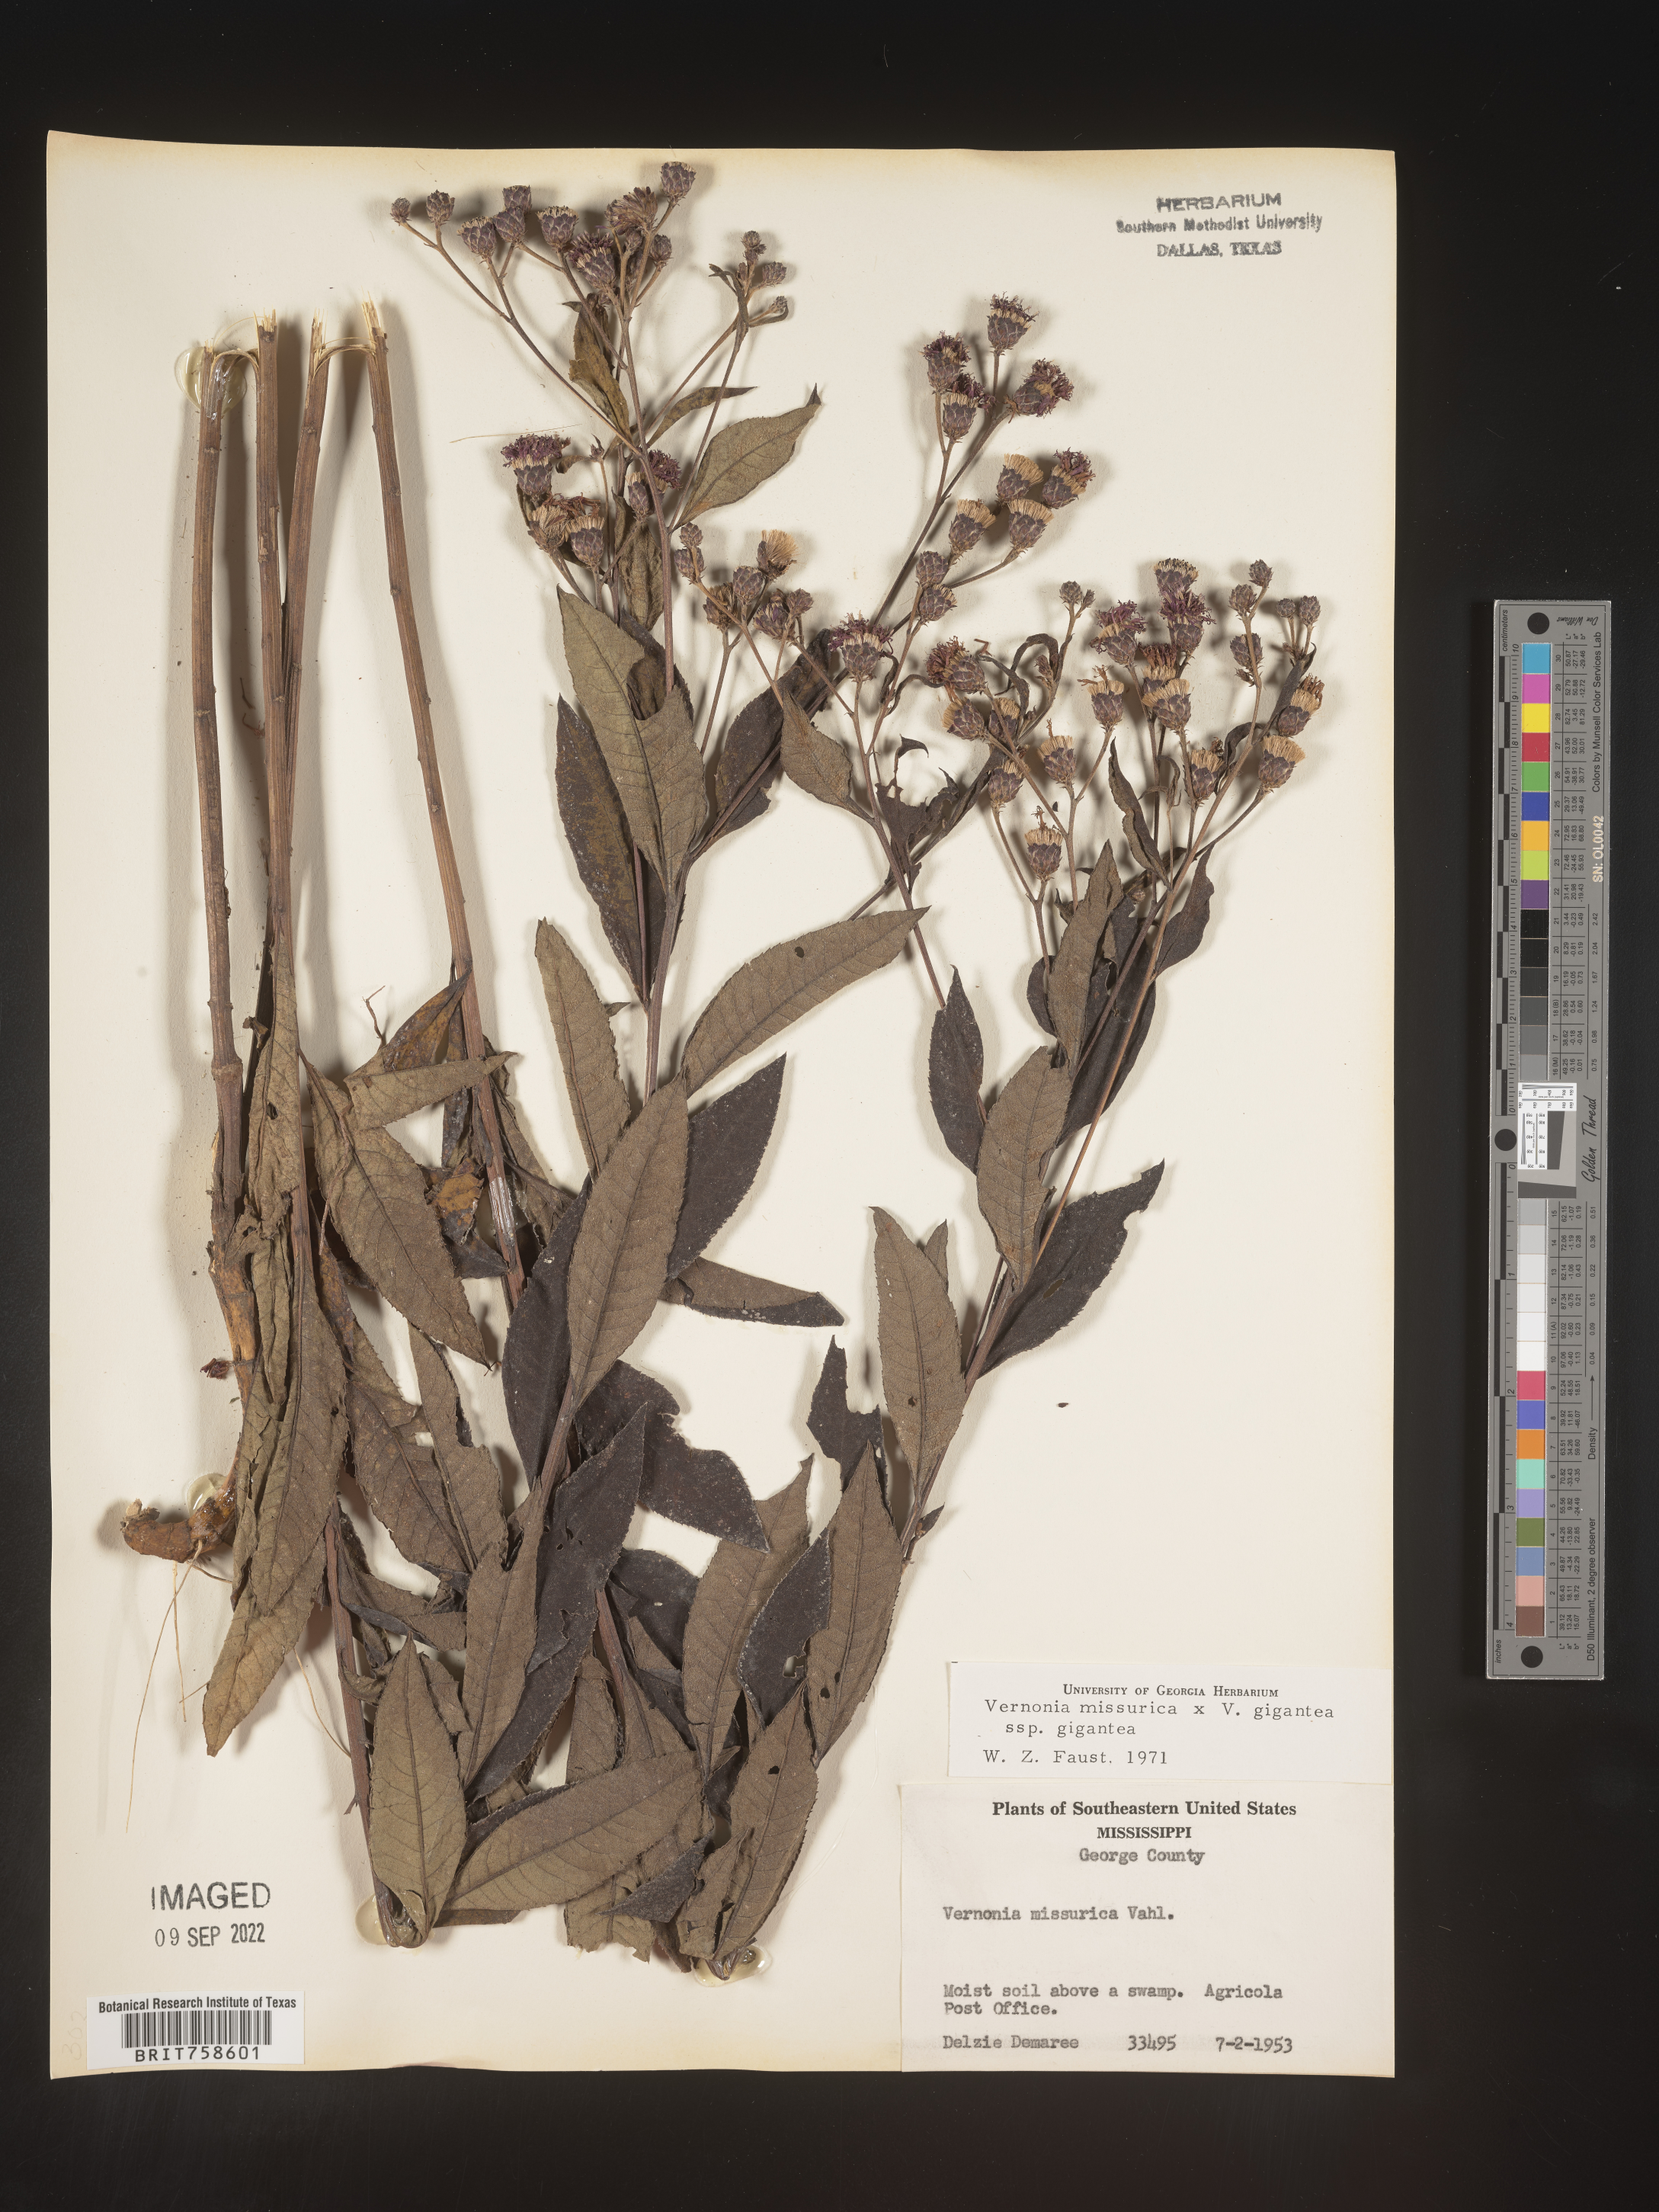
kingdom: Plantae
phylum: Tracheophyta
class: Magnoliopsida
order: Asterales
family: Asteraceae
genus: Vernonia
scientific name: Vernonia missurica
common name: Missouri ironweed
